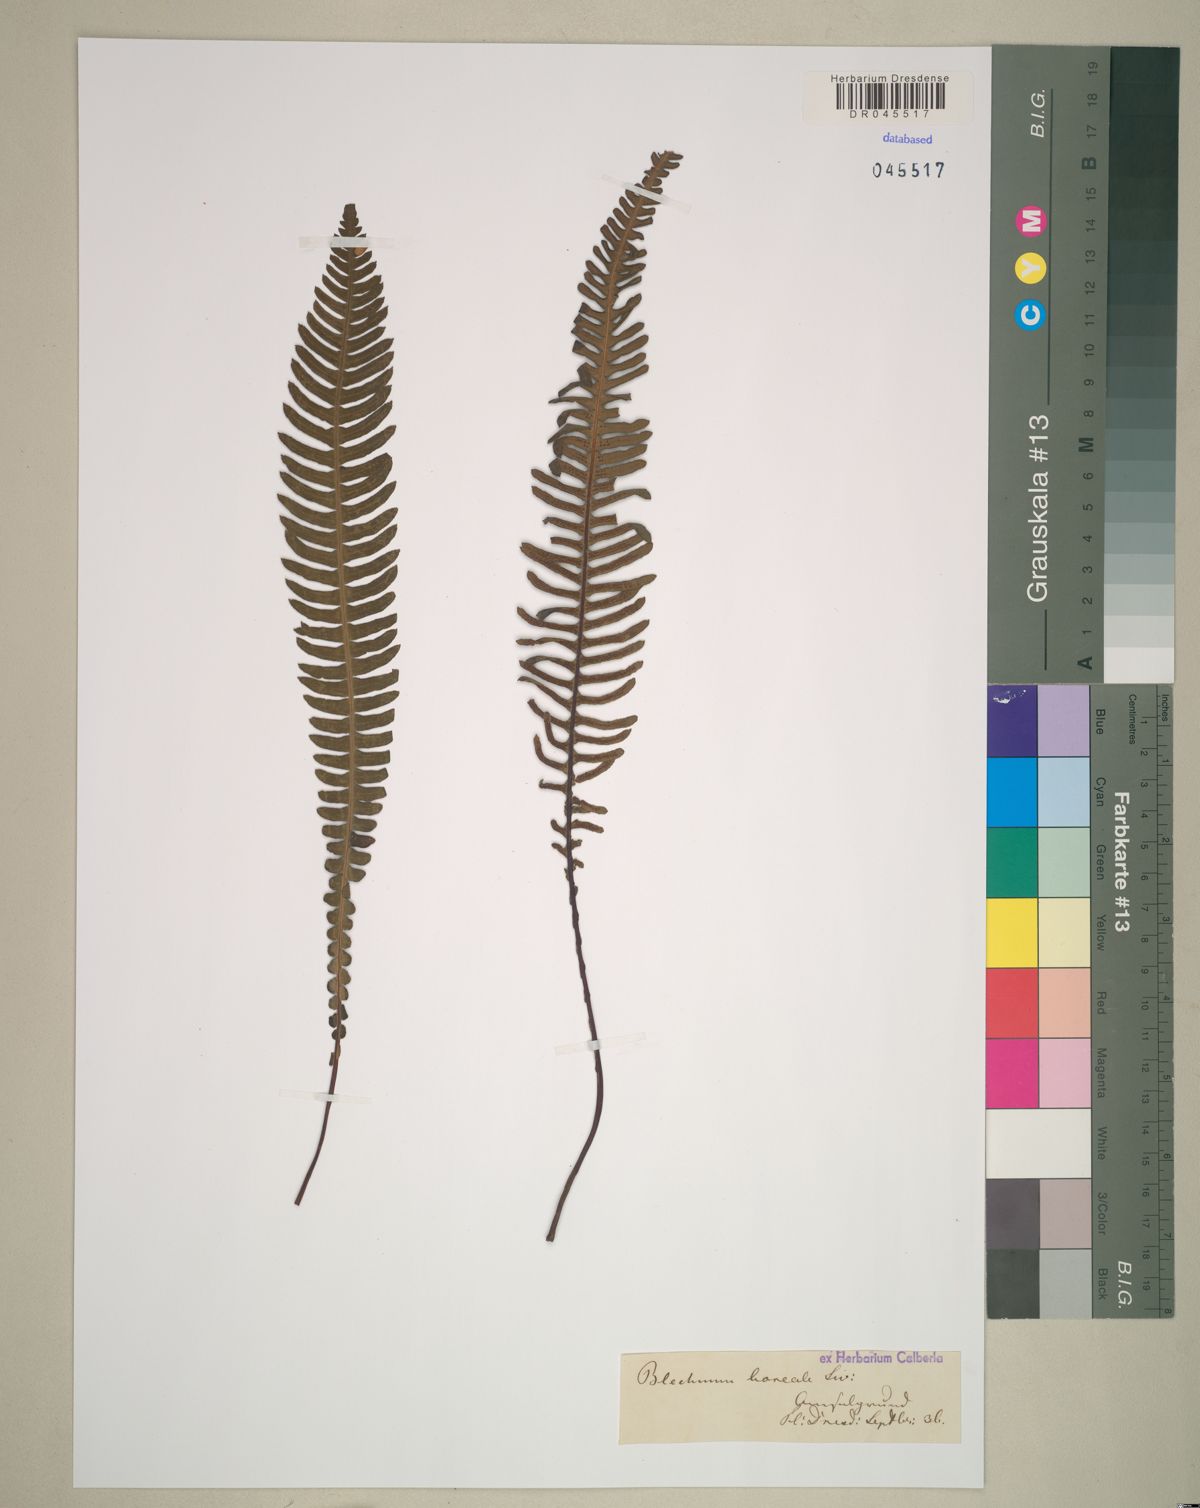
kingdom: Plantae
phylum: Tracheophyta
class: Polypodiopsida
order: Polypodiales
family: Blechnaceae
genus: Struthiopteris
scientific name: Struthiopteris spicant
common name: Deer fern
